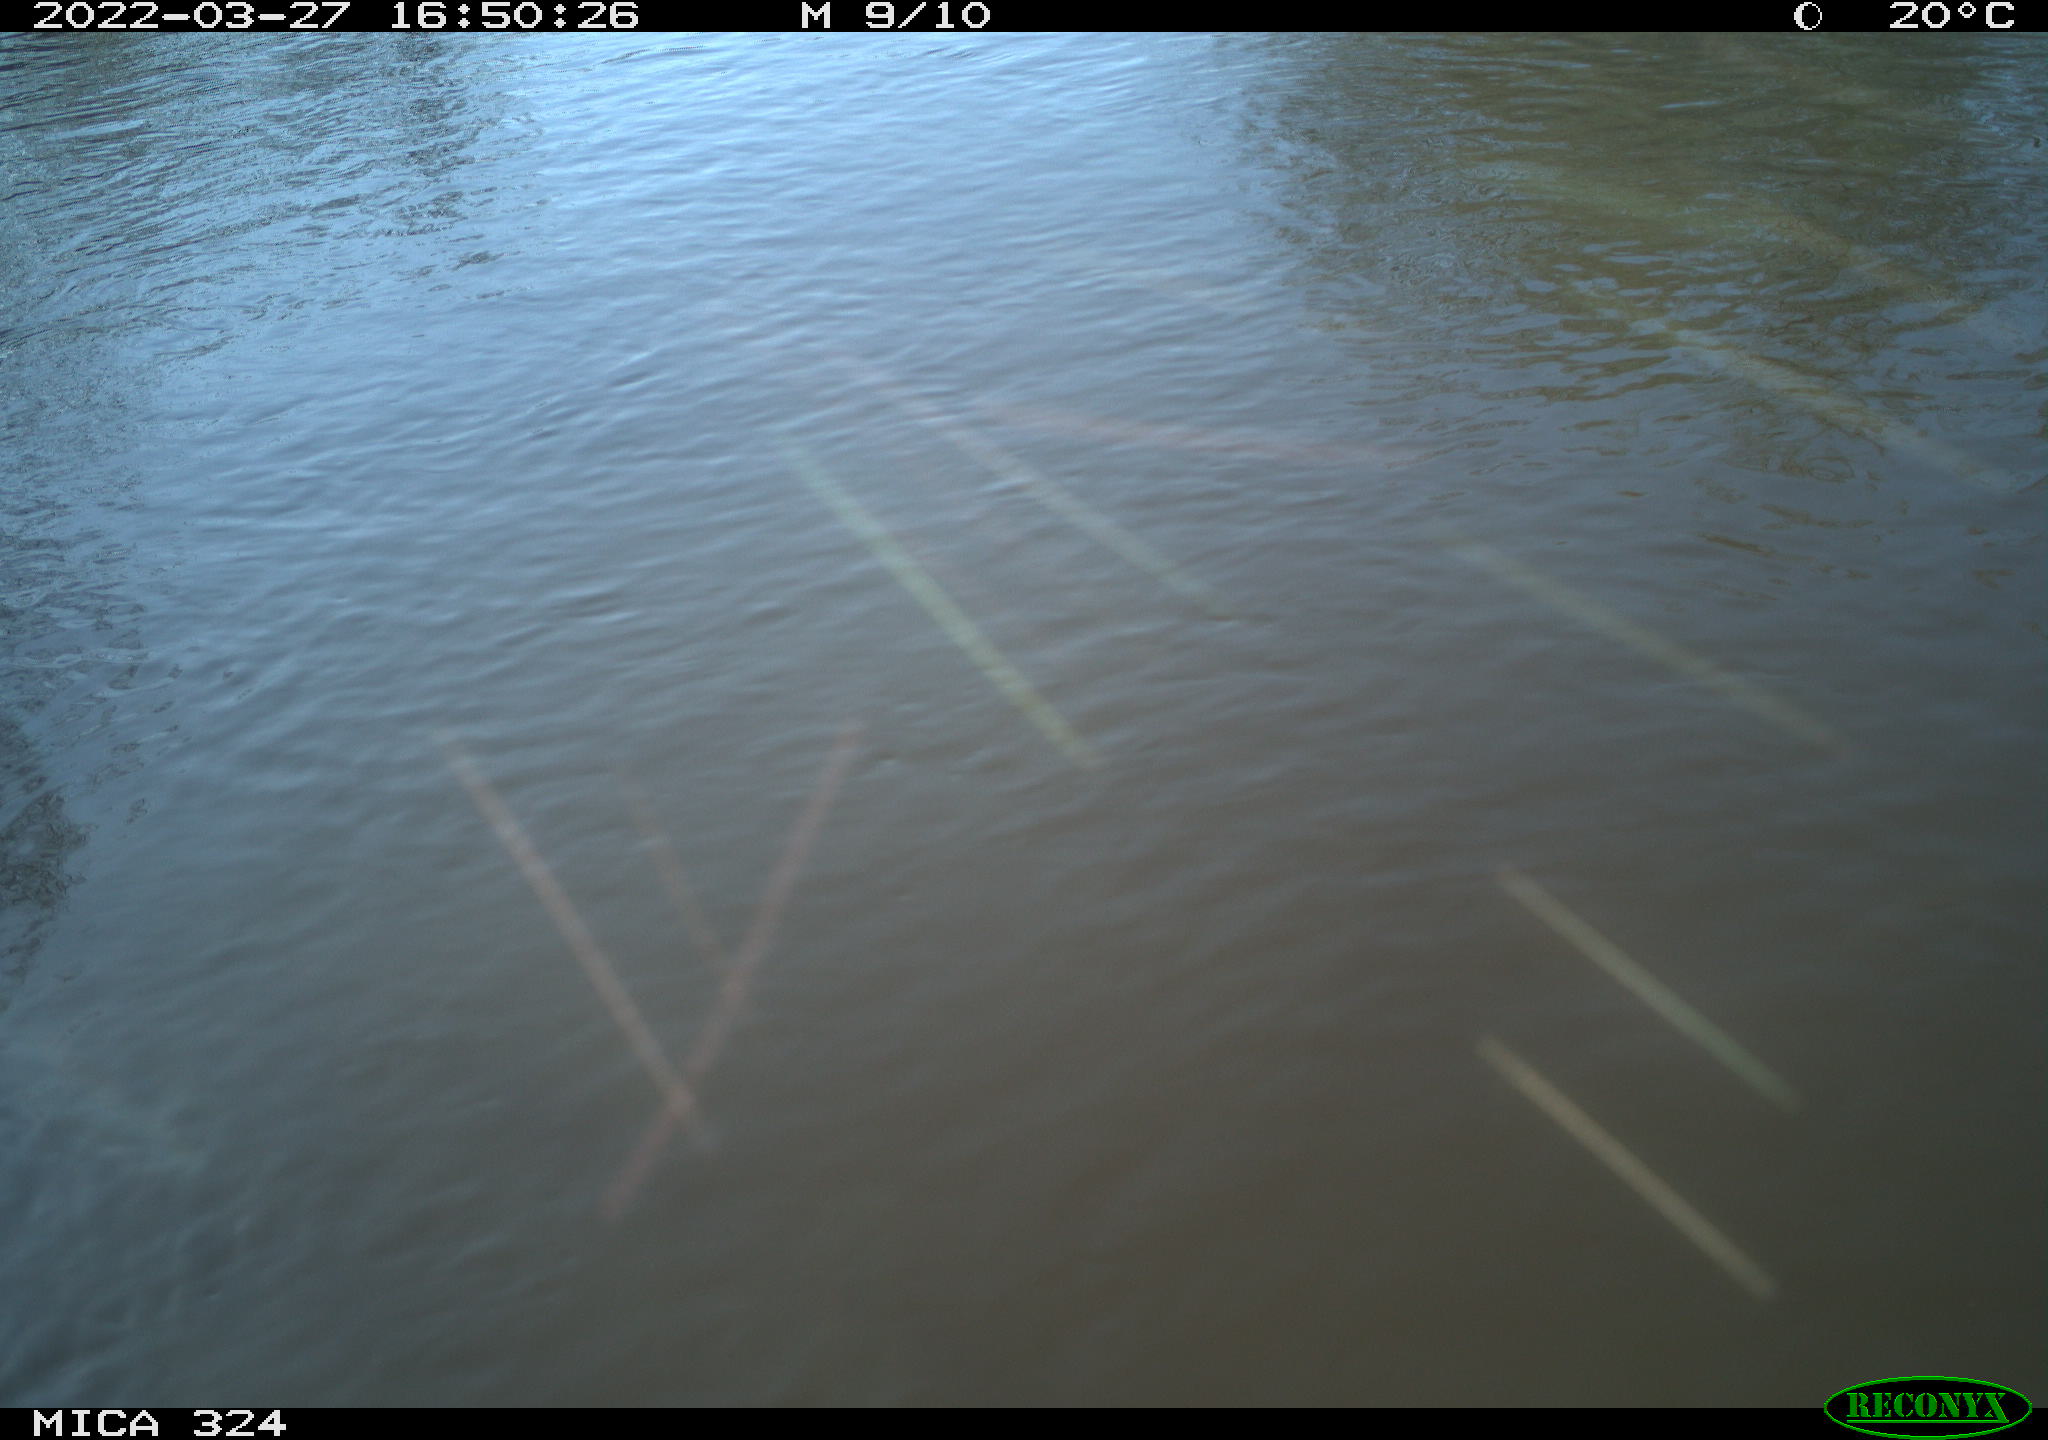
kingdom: Animalia
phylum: Chordata
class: Mammalia
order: Rodentia
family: Cricetidae
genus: Ondatra
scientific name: Ondatra zibethicus
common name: Muskrat
